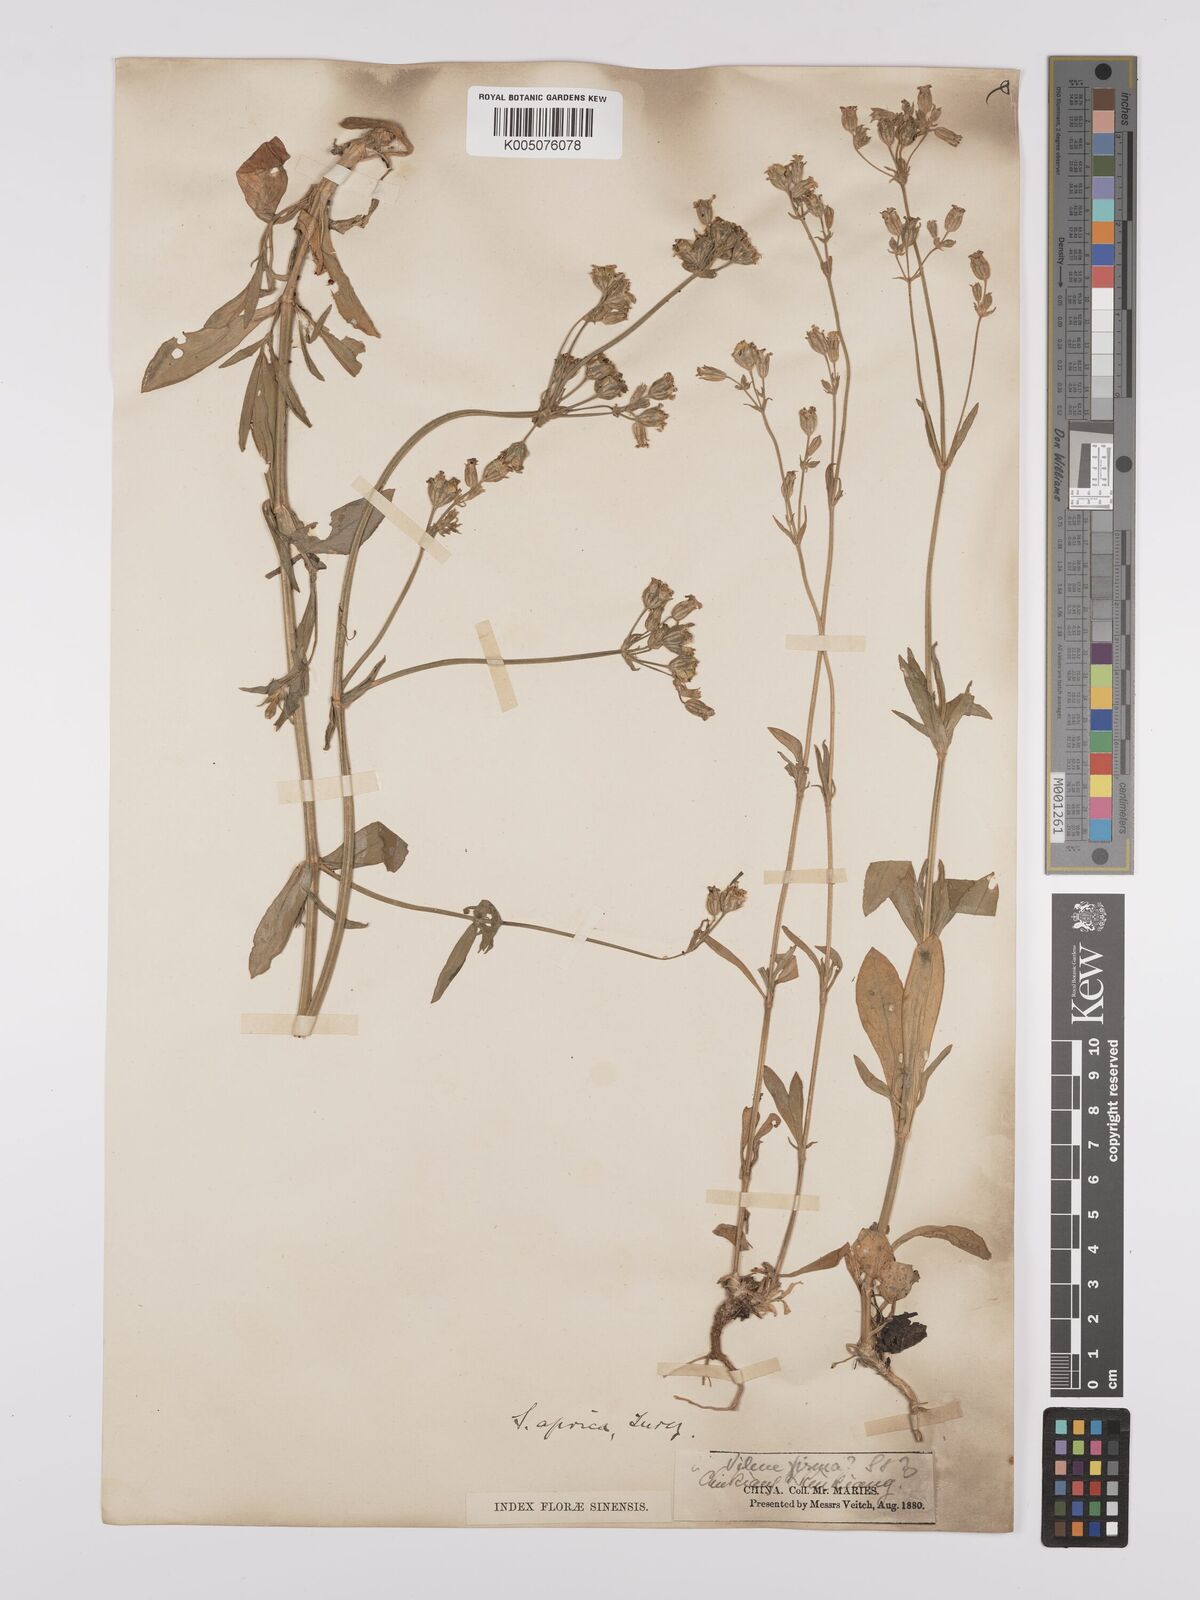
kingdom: Plantae
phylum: Tracheophyta
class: Magnoliopsida
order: Caryophyllales
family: Caryophyllaceae
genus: Silene
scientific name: Silene aprica
